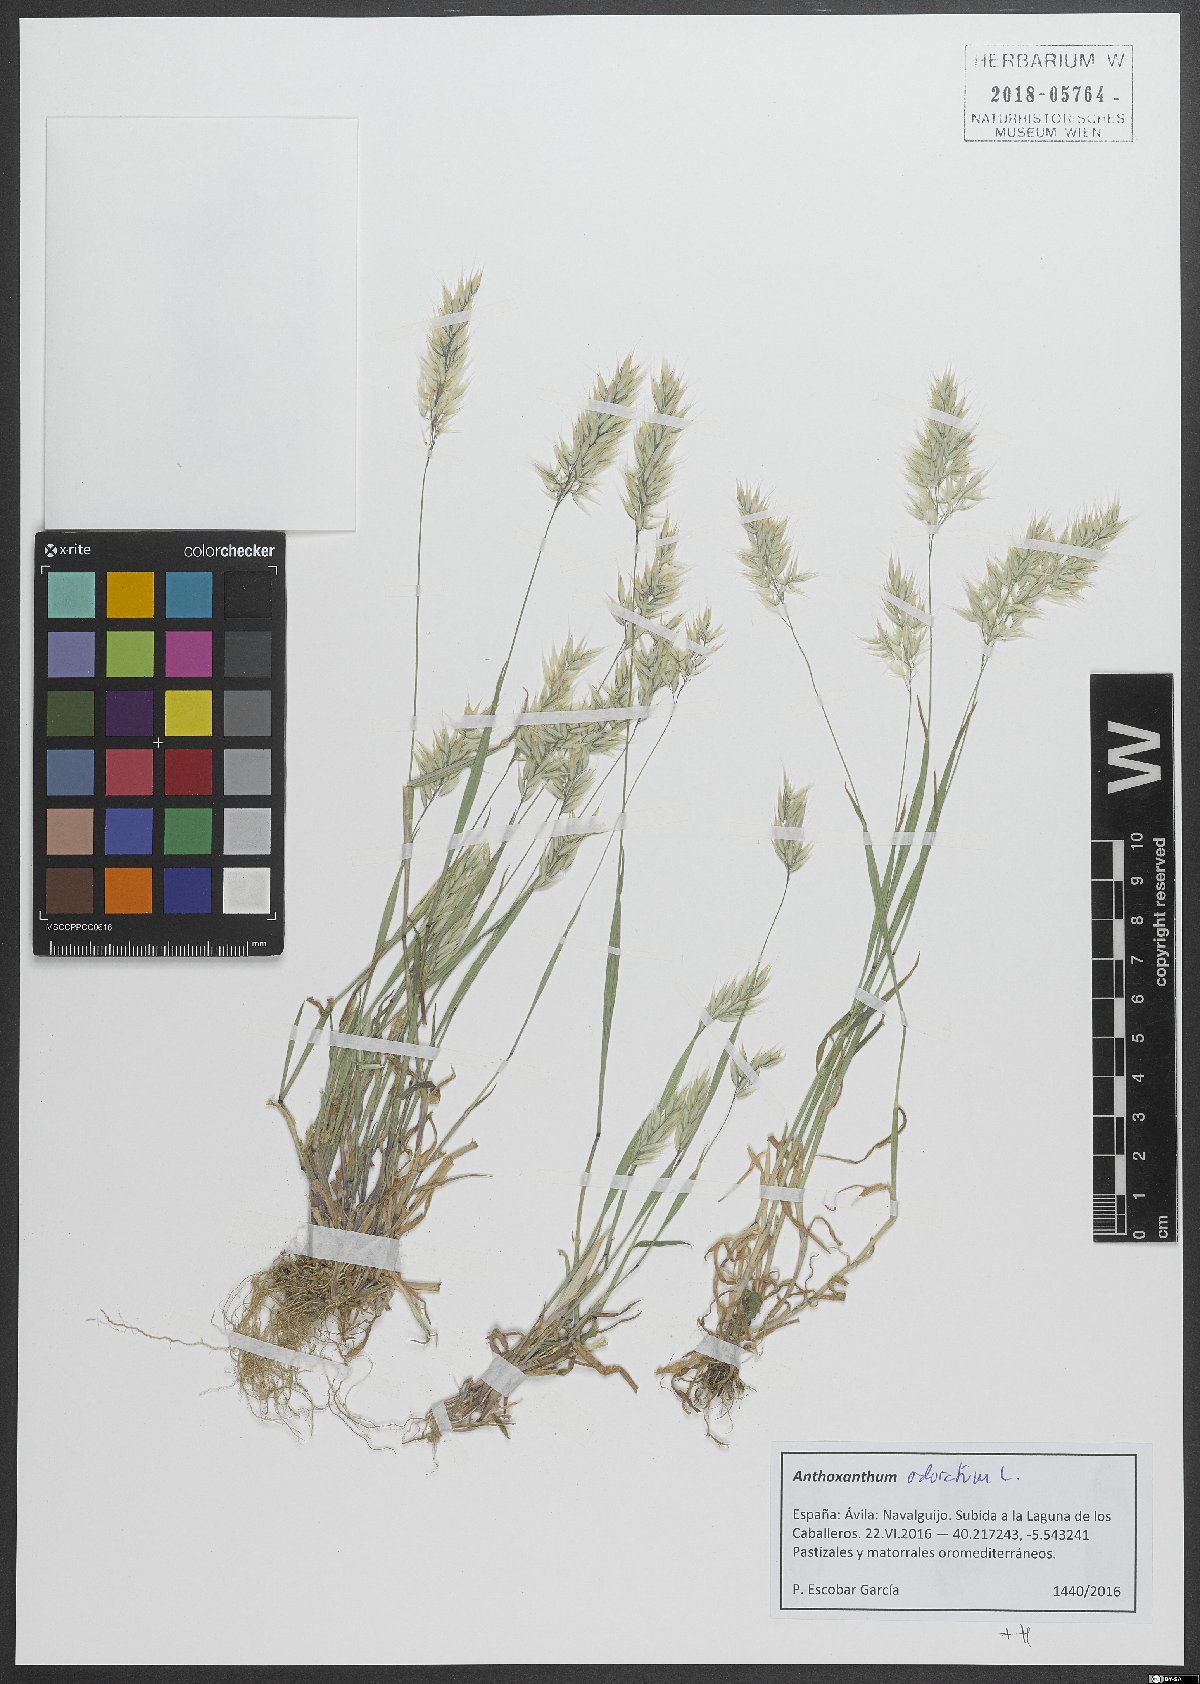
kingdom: Plantae
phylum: Tracheophyta
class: Liliopsida
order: Poales
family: Poaceae
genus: Anthoxanthum
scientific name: Anthoxanthum odoratum
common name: Sweet vernalgrass
